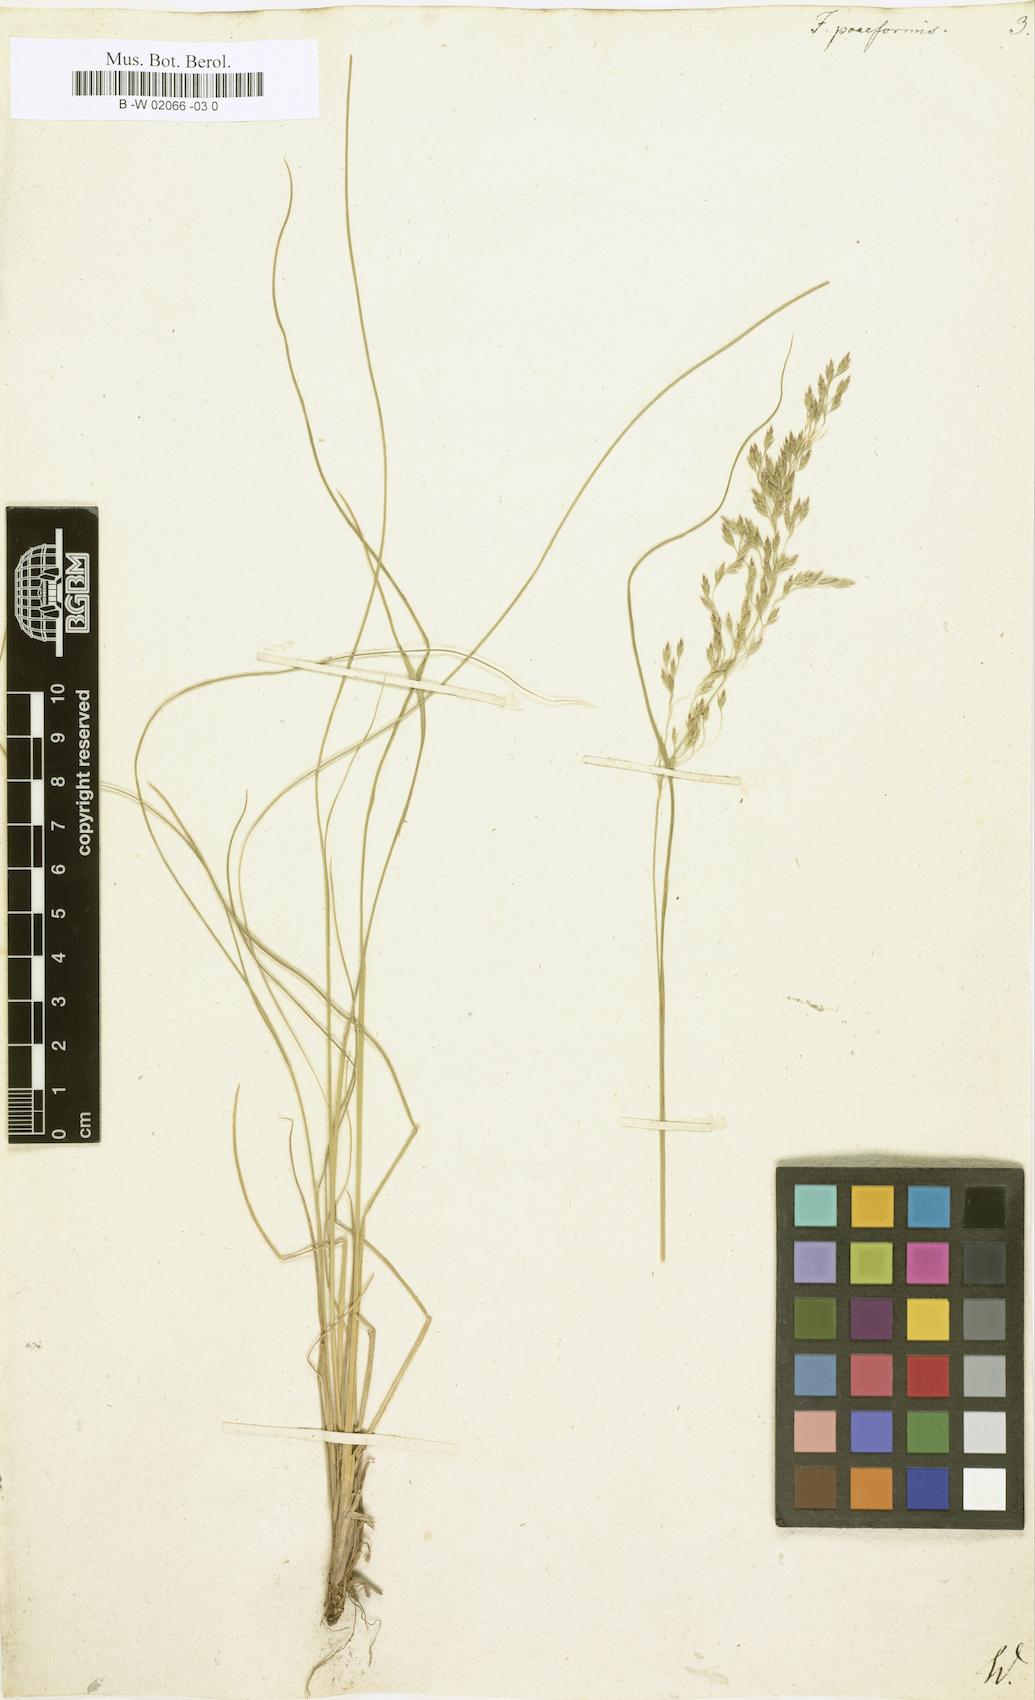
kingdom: Plantae
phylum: Tracheophyta
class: Liliopsida
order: Poales
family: Poaceae
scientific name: Poaceae
